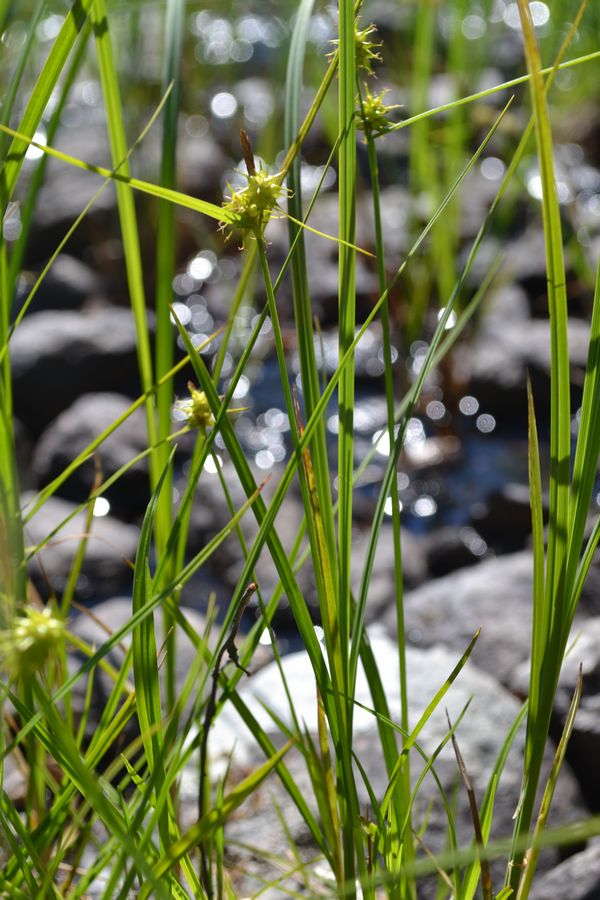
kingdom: Plantae
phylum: Tracheophyta
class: Liliopsida
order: Poales
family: Cyperaceae
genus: Carex
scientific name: Carex buxbaumii
